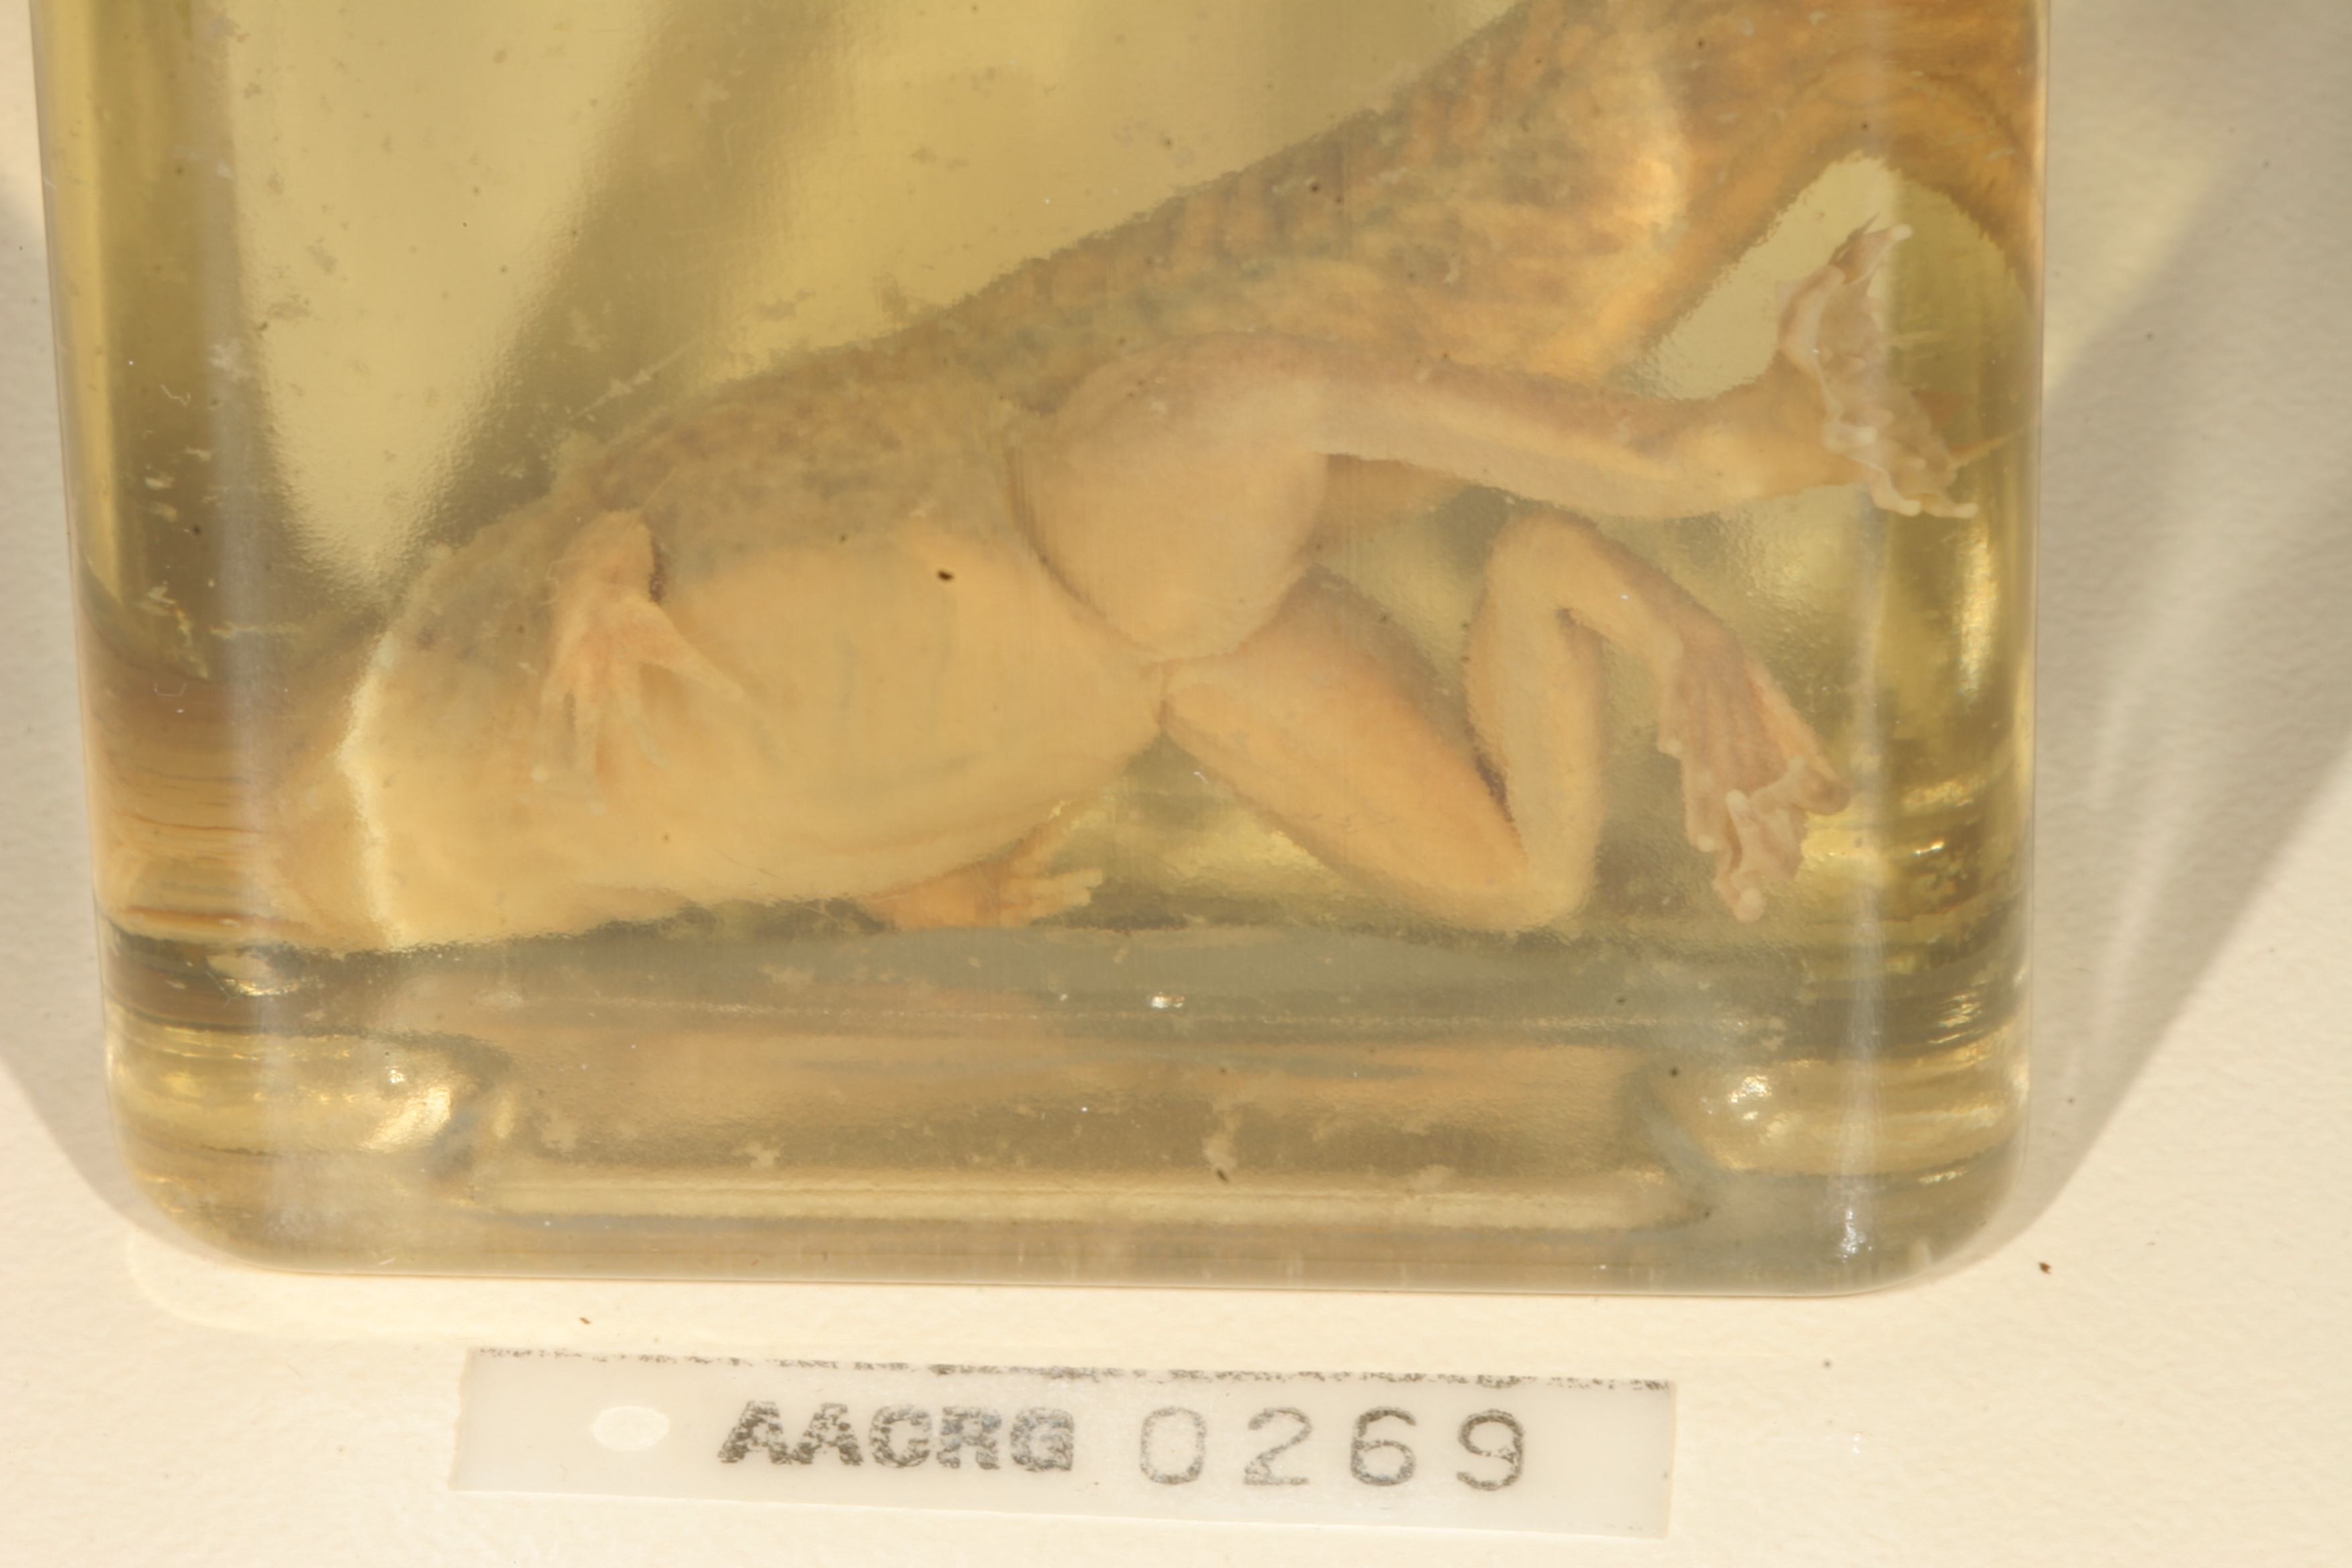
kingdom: Animalia
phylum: Chordata
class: Amphibia
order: Anura
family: Pyxicephalidae
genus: Amietia
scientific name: Amietia vertebralis
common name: Drakensberg stream frog
